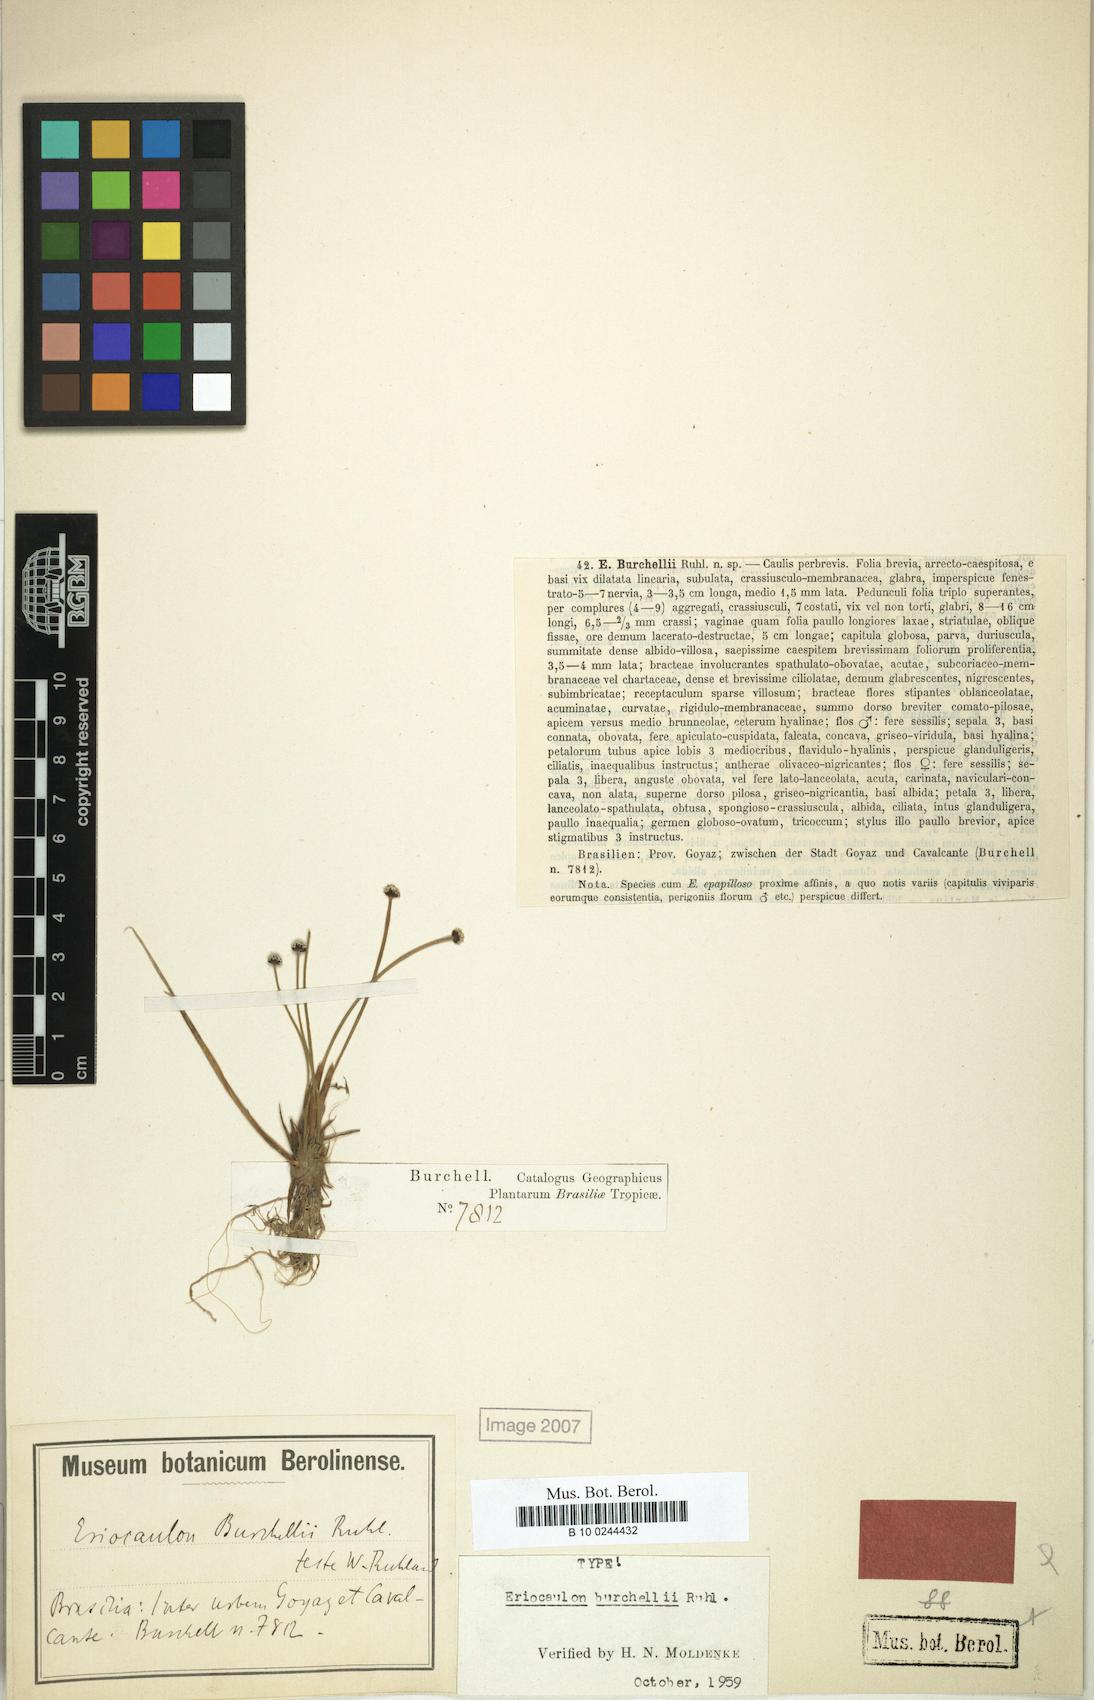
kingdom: Plantae
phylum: Tracheophyta
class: Liliopsida
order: Poales
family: Eriocaulaceae
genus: Eriocaulon
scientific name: Eriocaulon modestum
